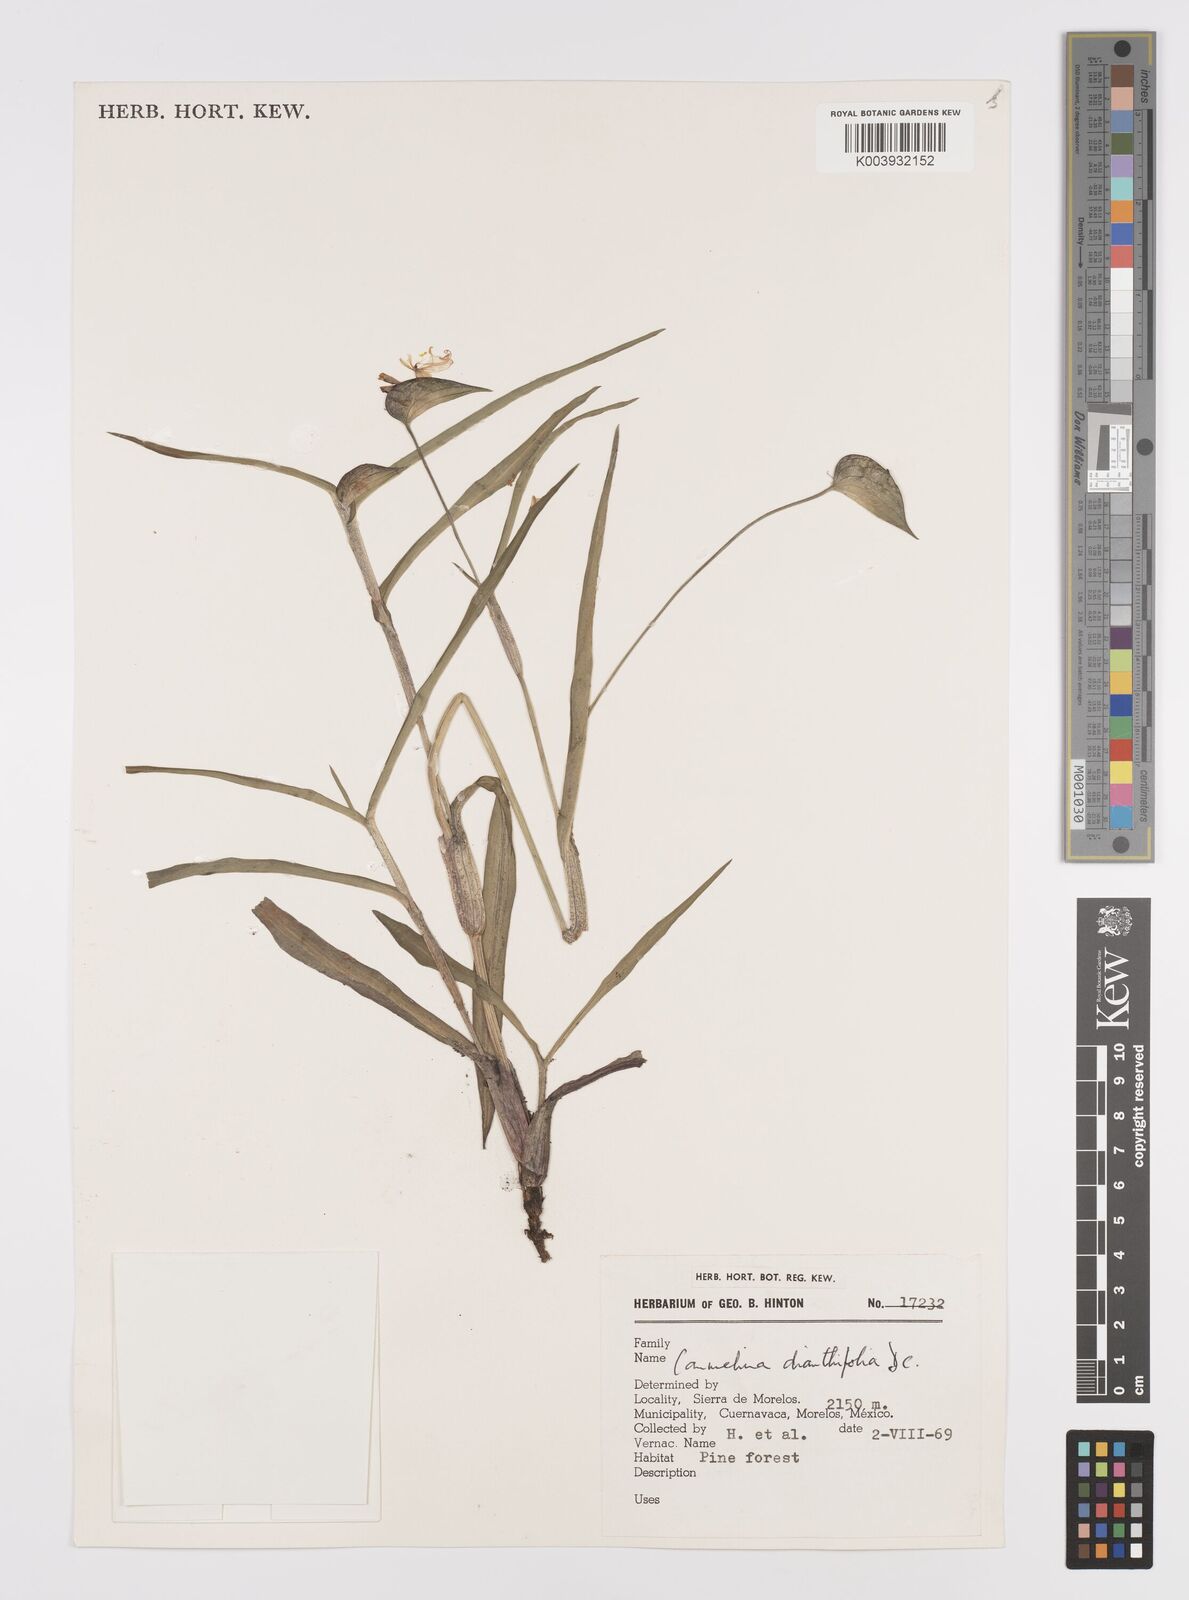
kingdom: Plantae
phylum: Tracheophyta
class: Liliopsida
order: Commelinales
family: Commelinaceae
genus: Commelina
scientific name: Commelina standleyi
